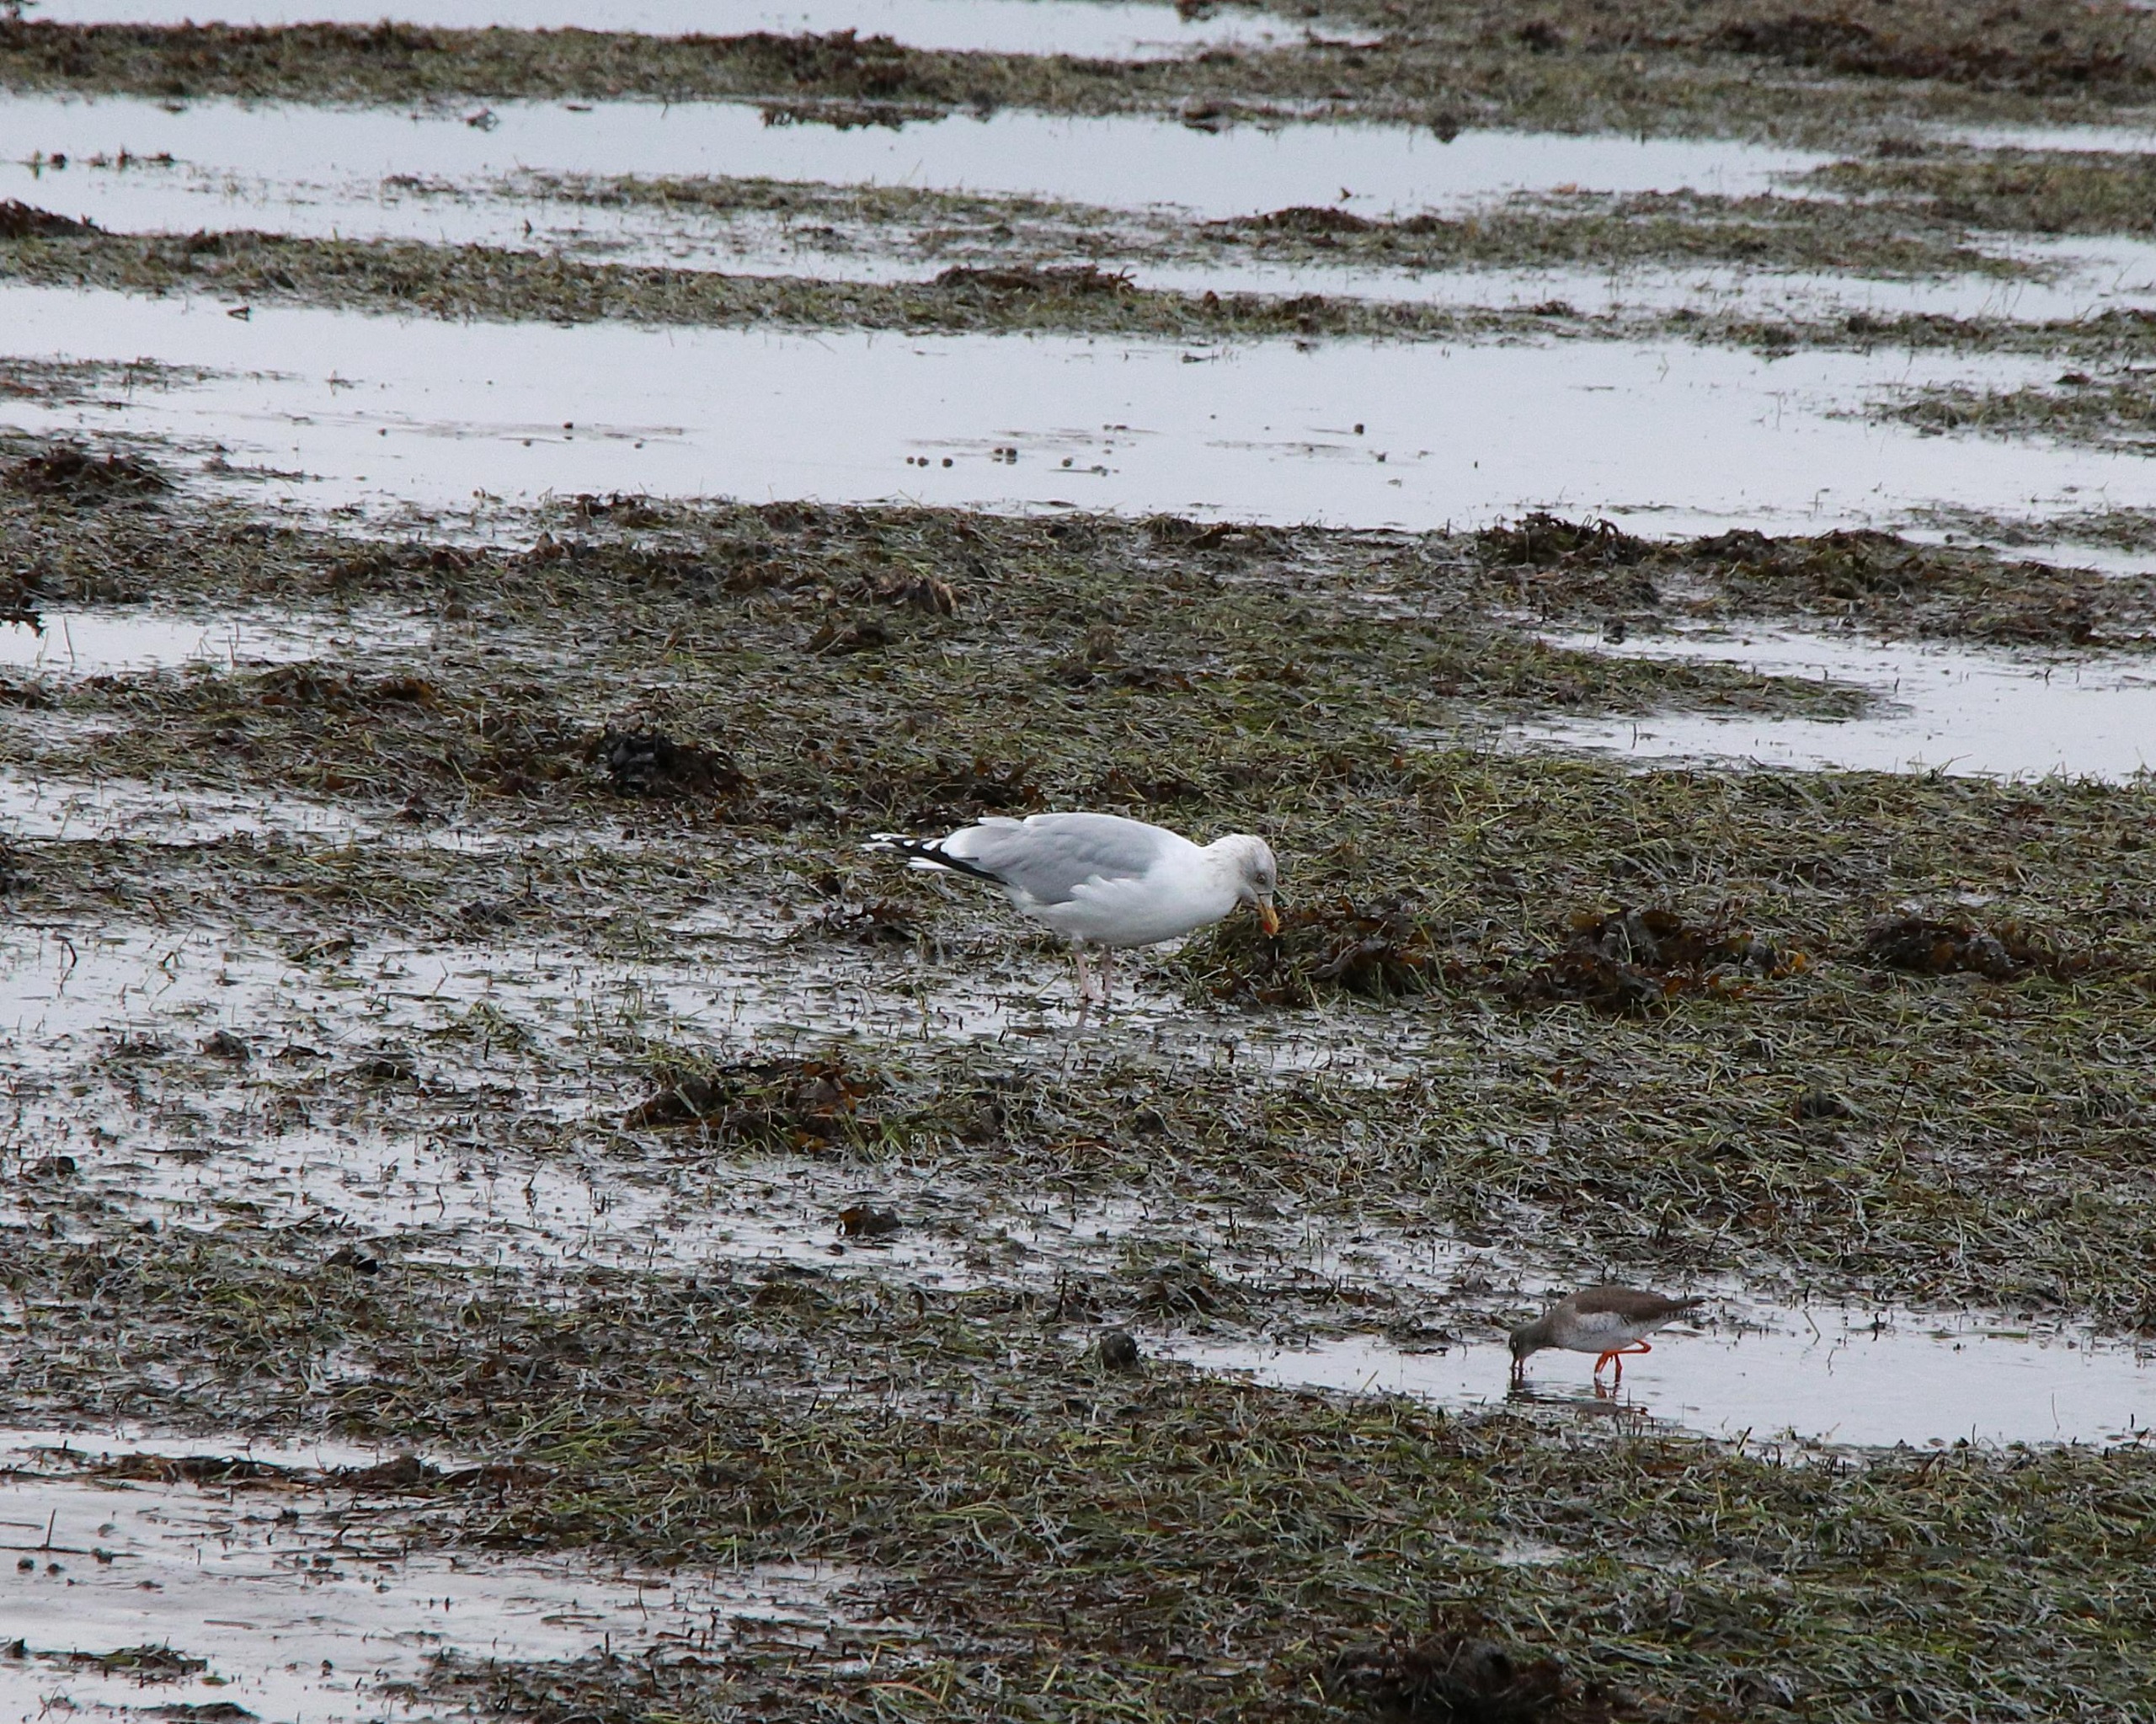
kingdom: Animalia
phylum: Chordata
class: Aves
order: Charadriiformes
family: Laridae
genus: Larus
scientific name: Larus argentatus
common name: Sølvmåge
